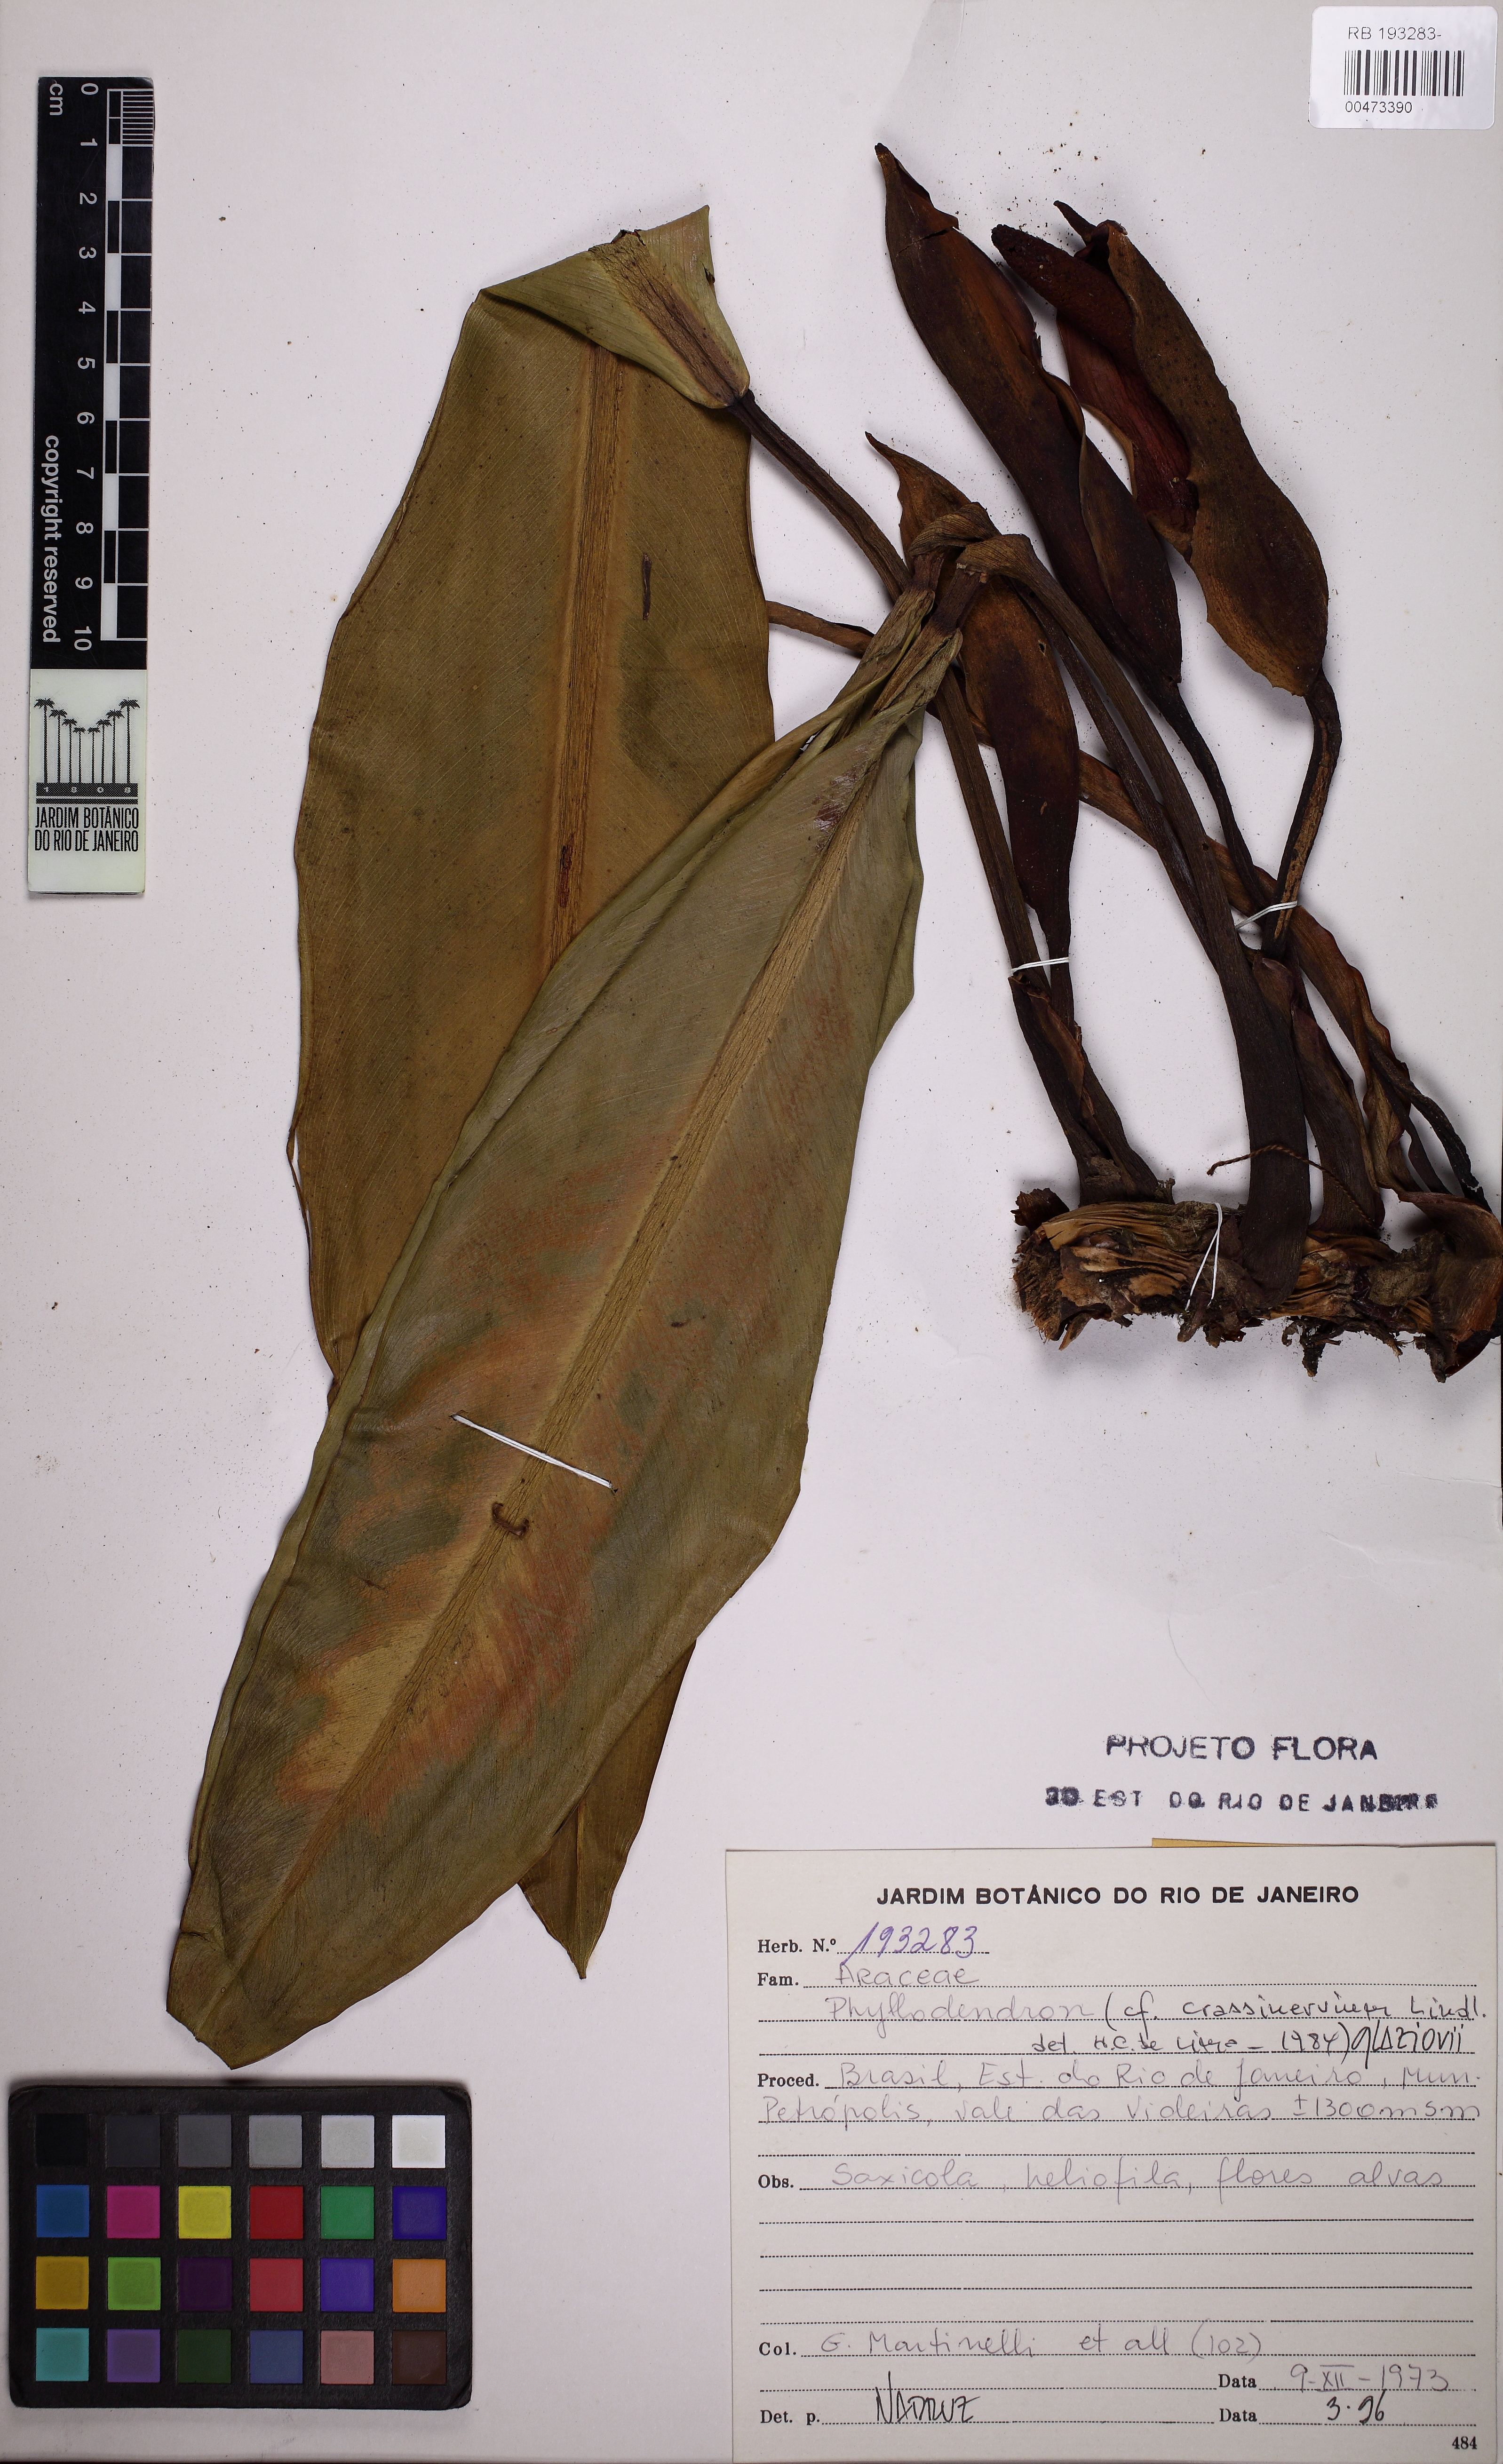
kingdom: Plantae
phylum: Tracheophyta
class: Liliopsida
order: Alismatales
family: Araceae
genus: Philodendron
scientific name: Philodendron edmundoi
